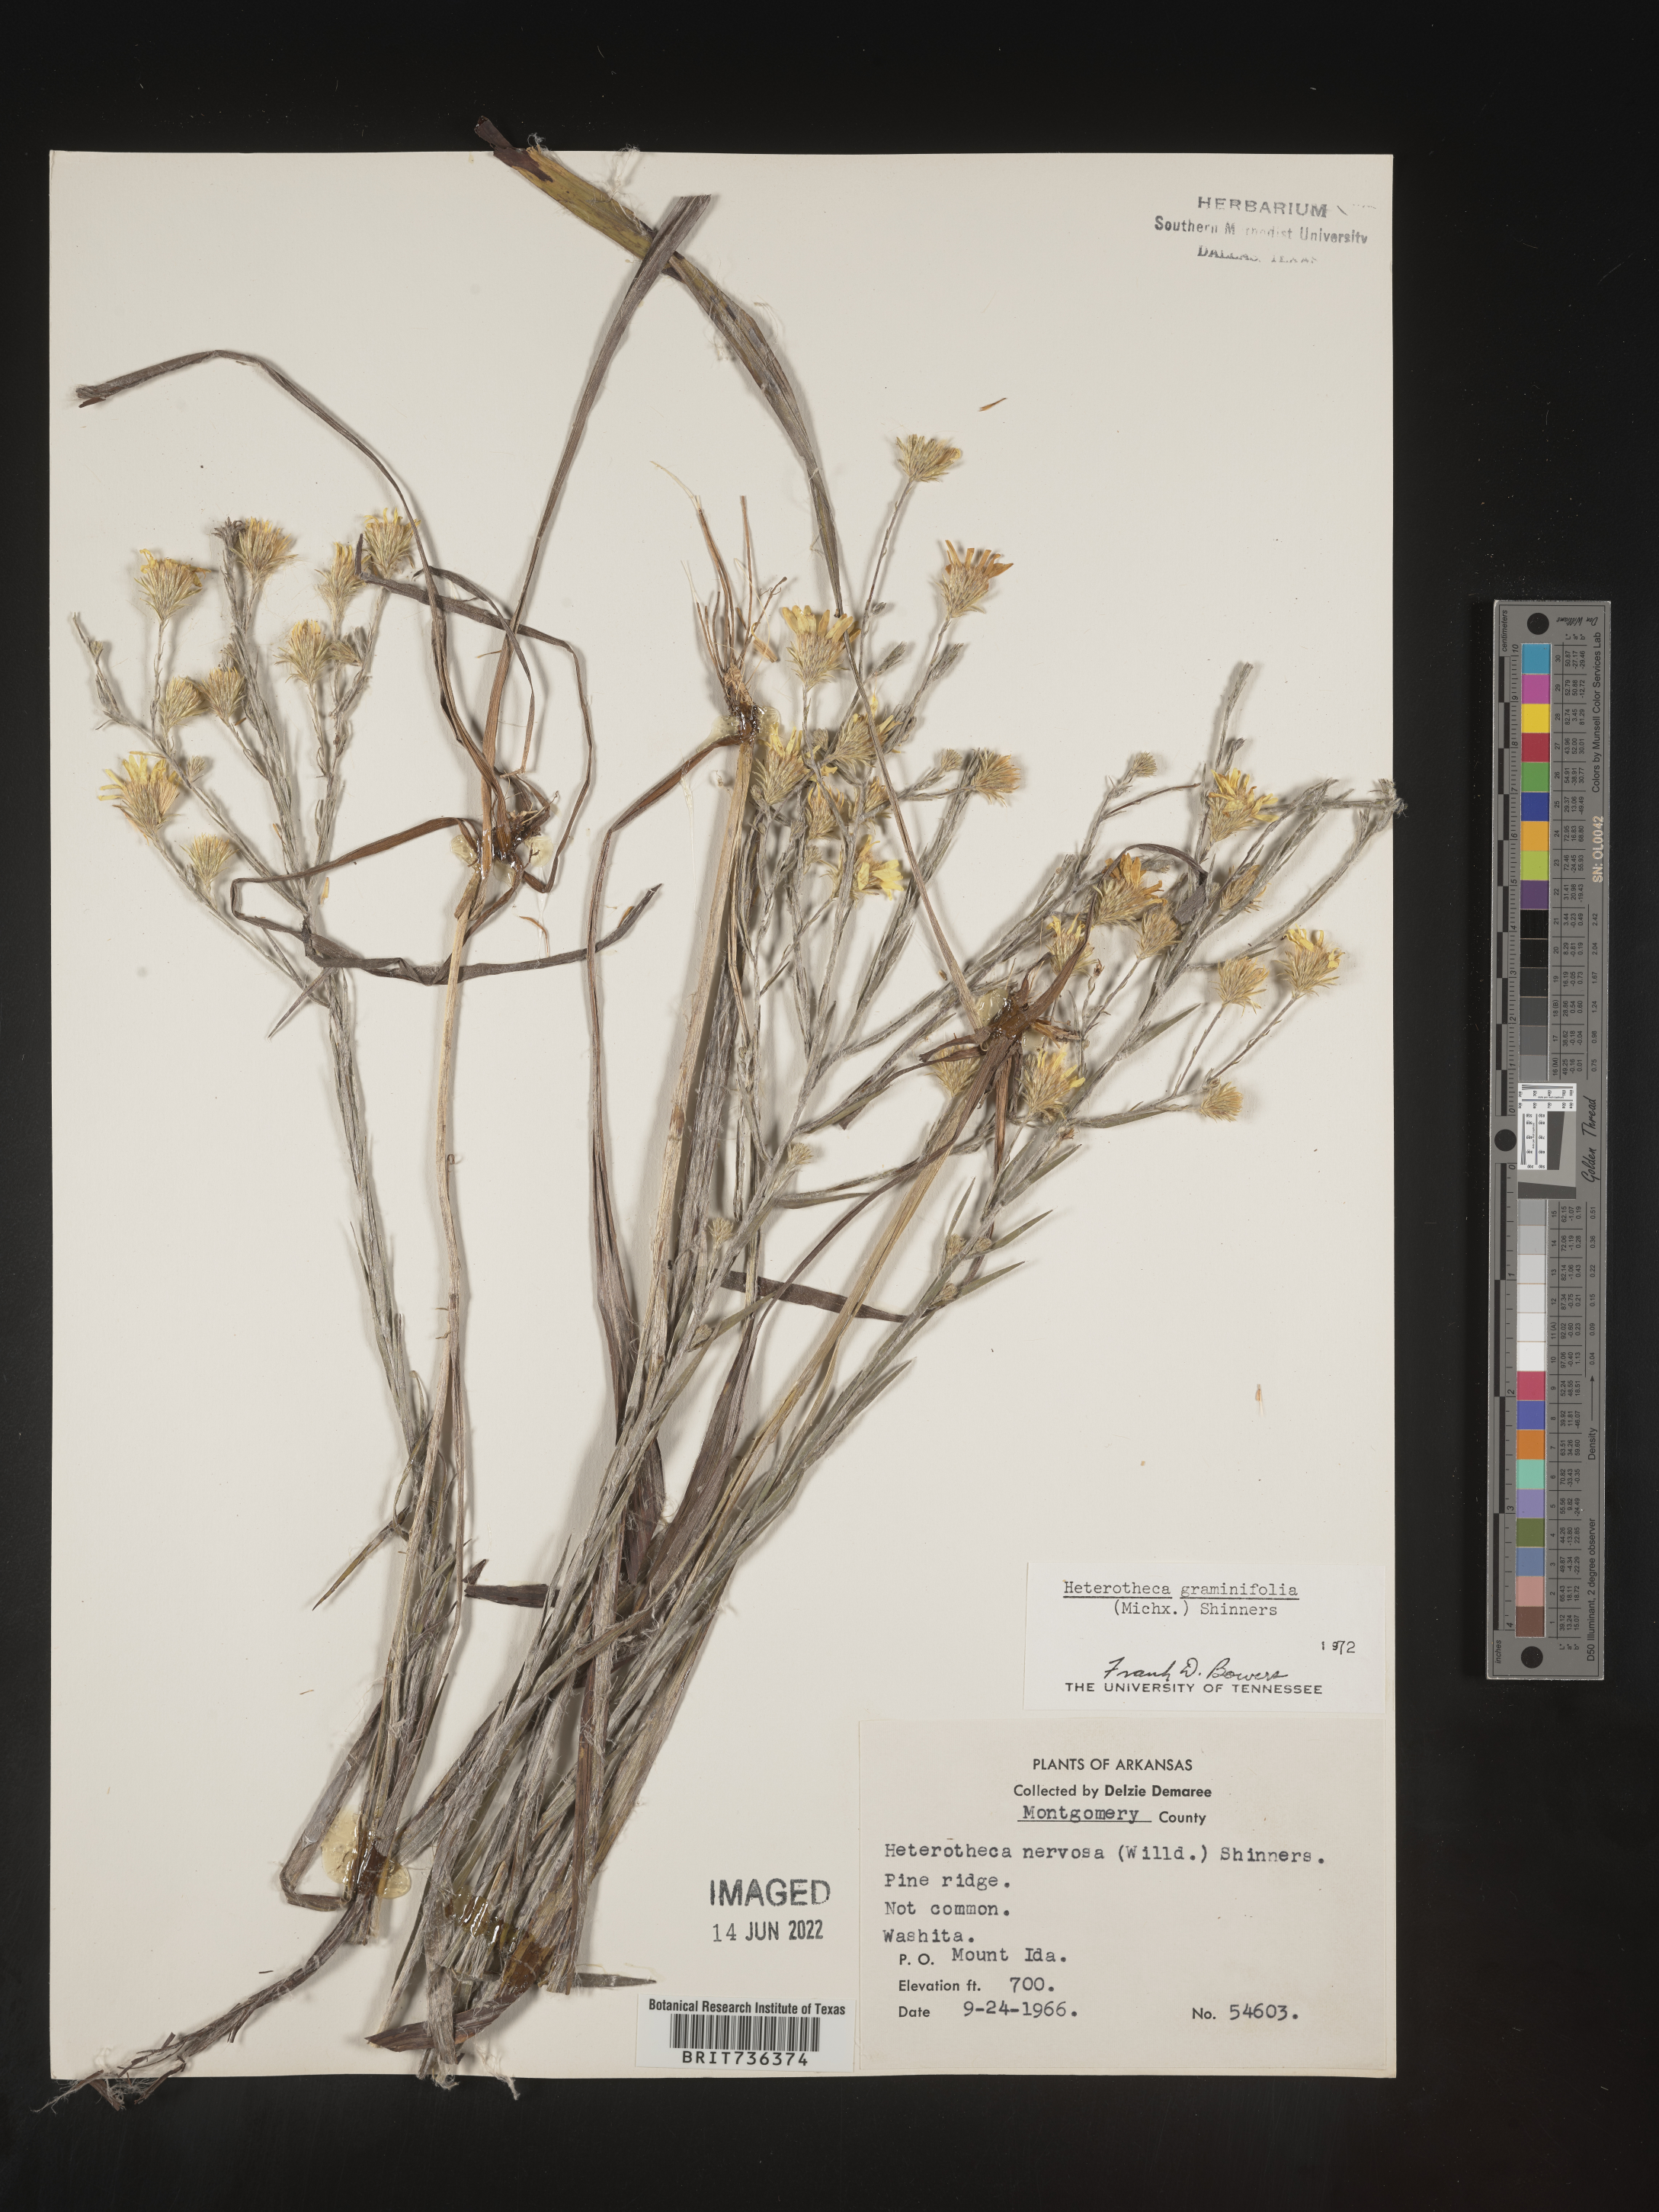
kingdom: Plantae
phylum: Tracheophyta
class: Magnoliopsida
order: Asterales
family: Asteraceae
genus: Pityopsis
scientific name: Pityopsis tenuifolia
